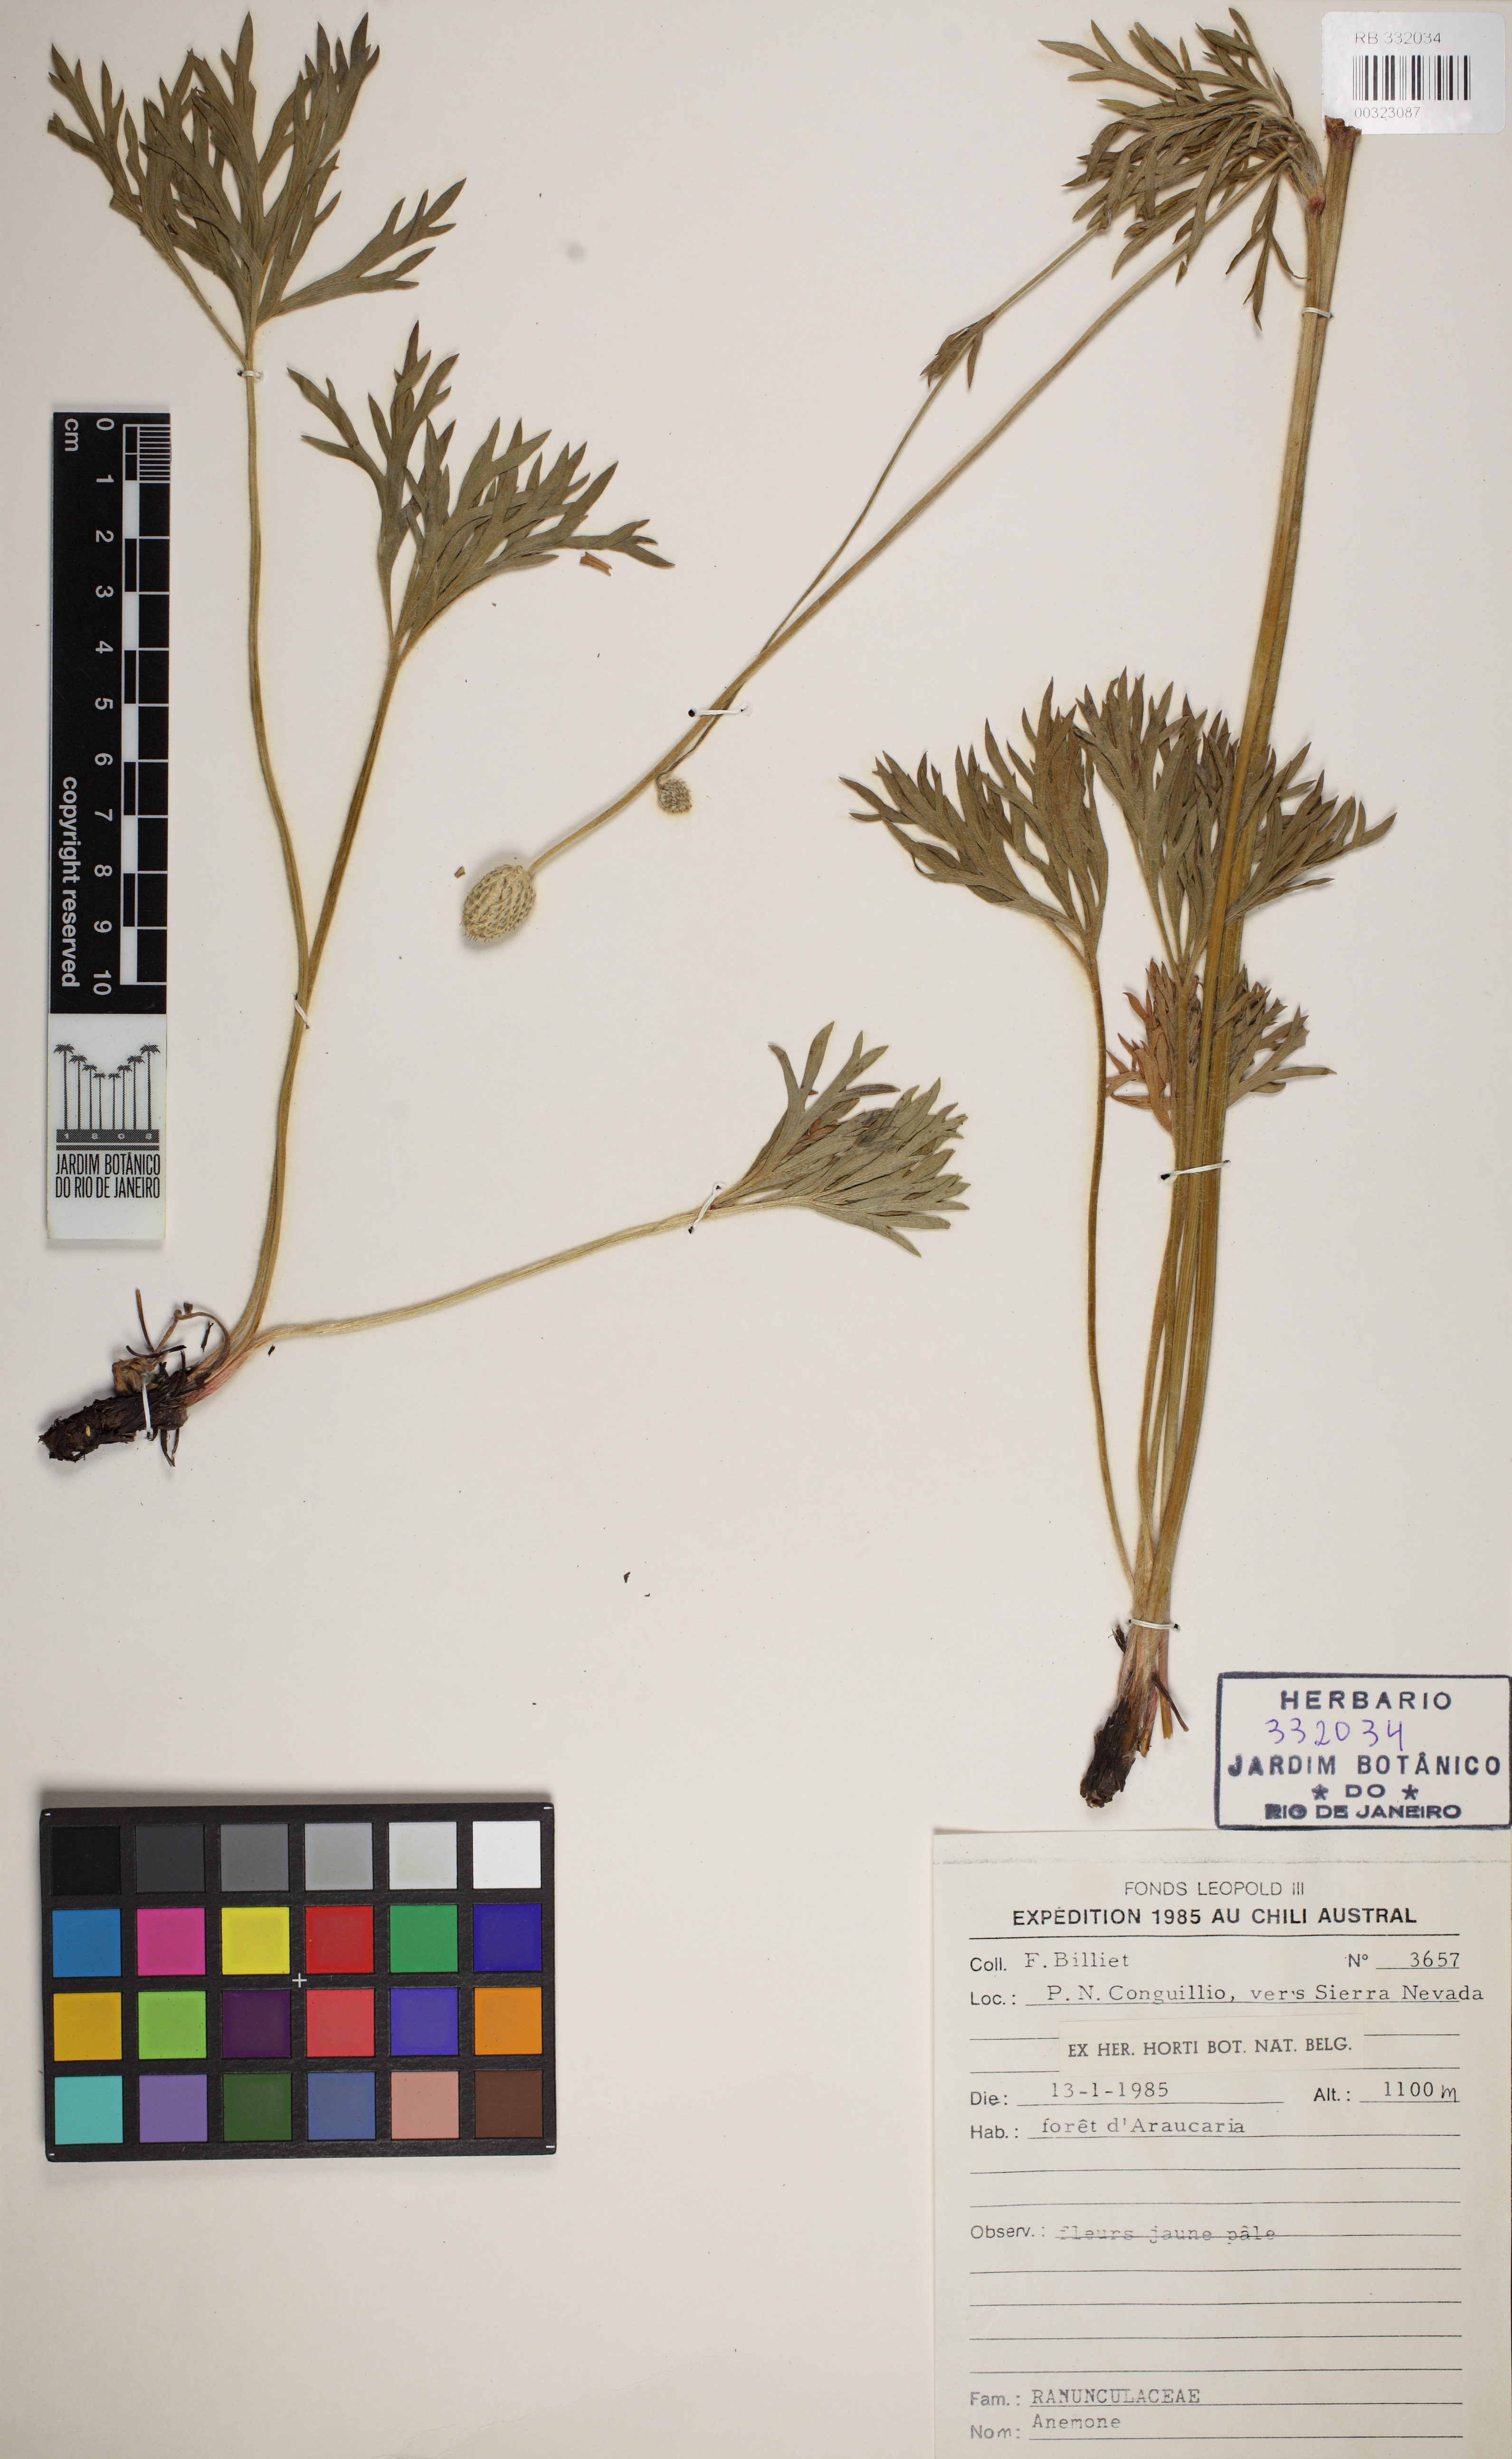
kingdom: Plantae
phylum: Tracheophyta
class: Magnoliopsida
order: Ranunculales
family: Ranunculaceae
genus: Anemone
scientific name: Anemone
